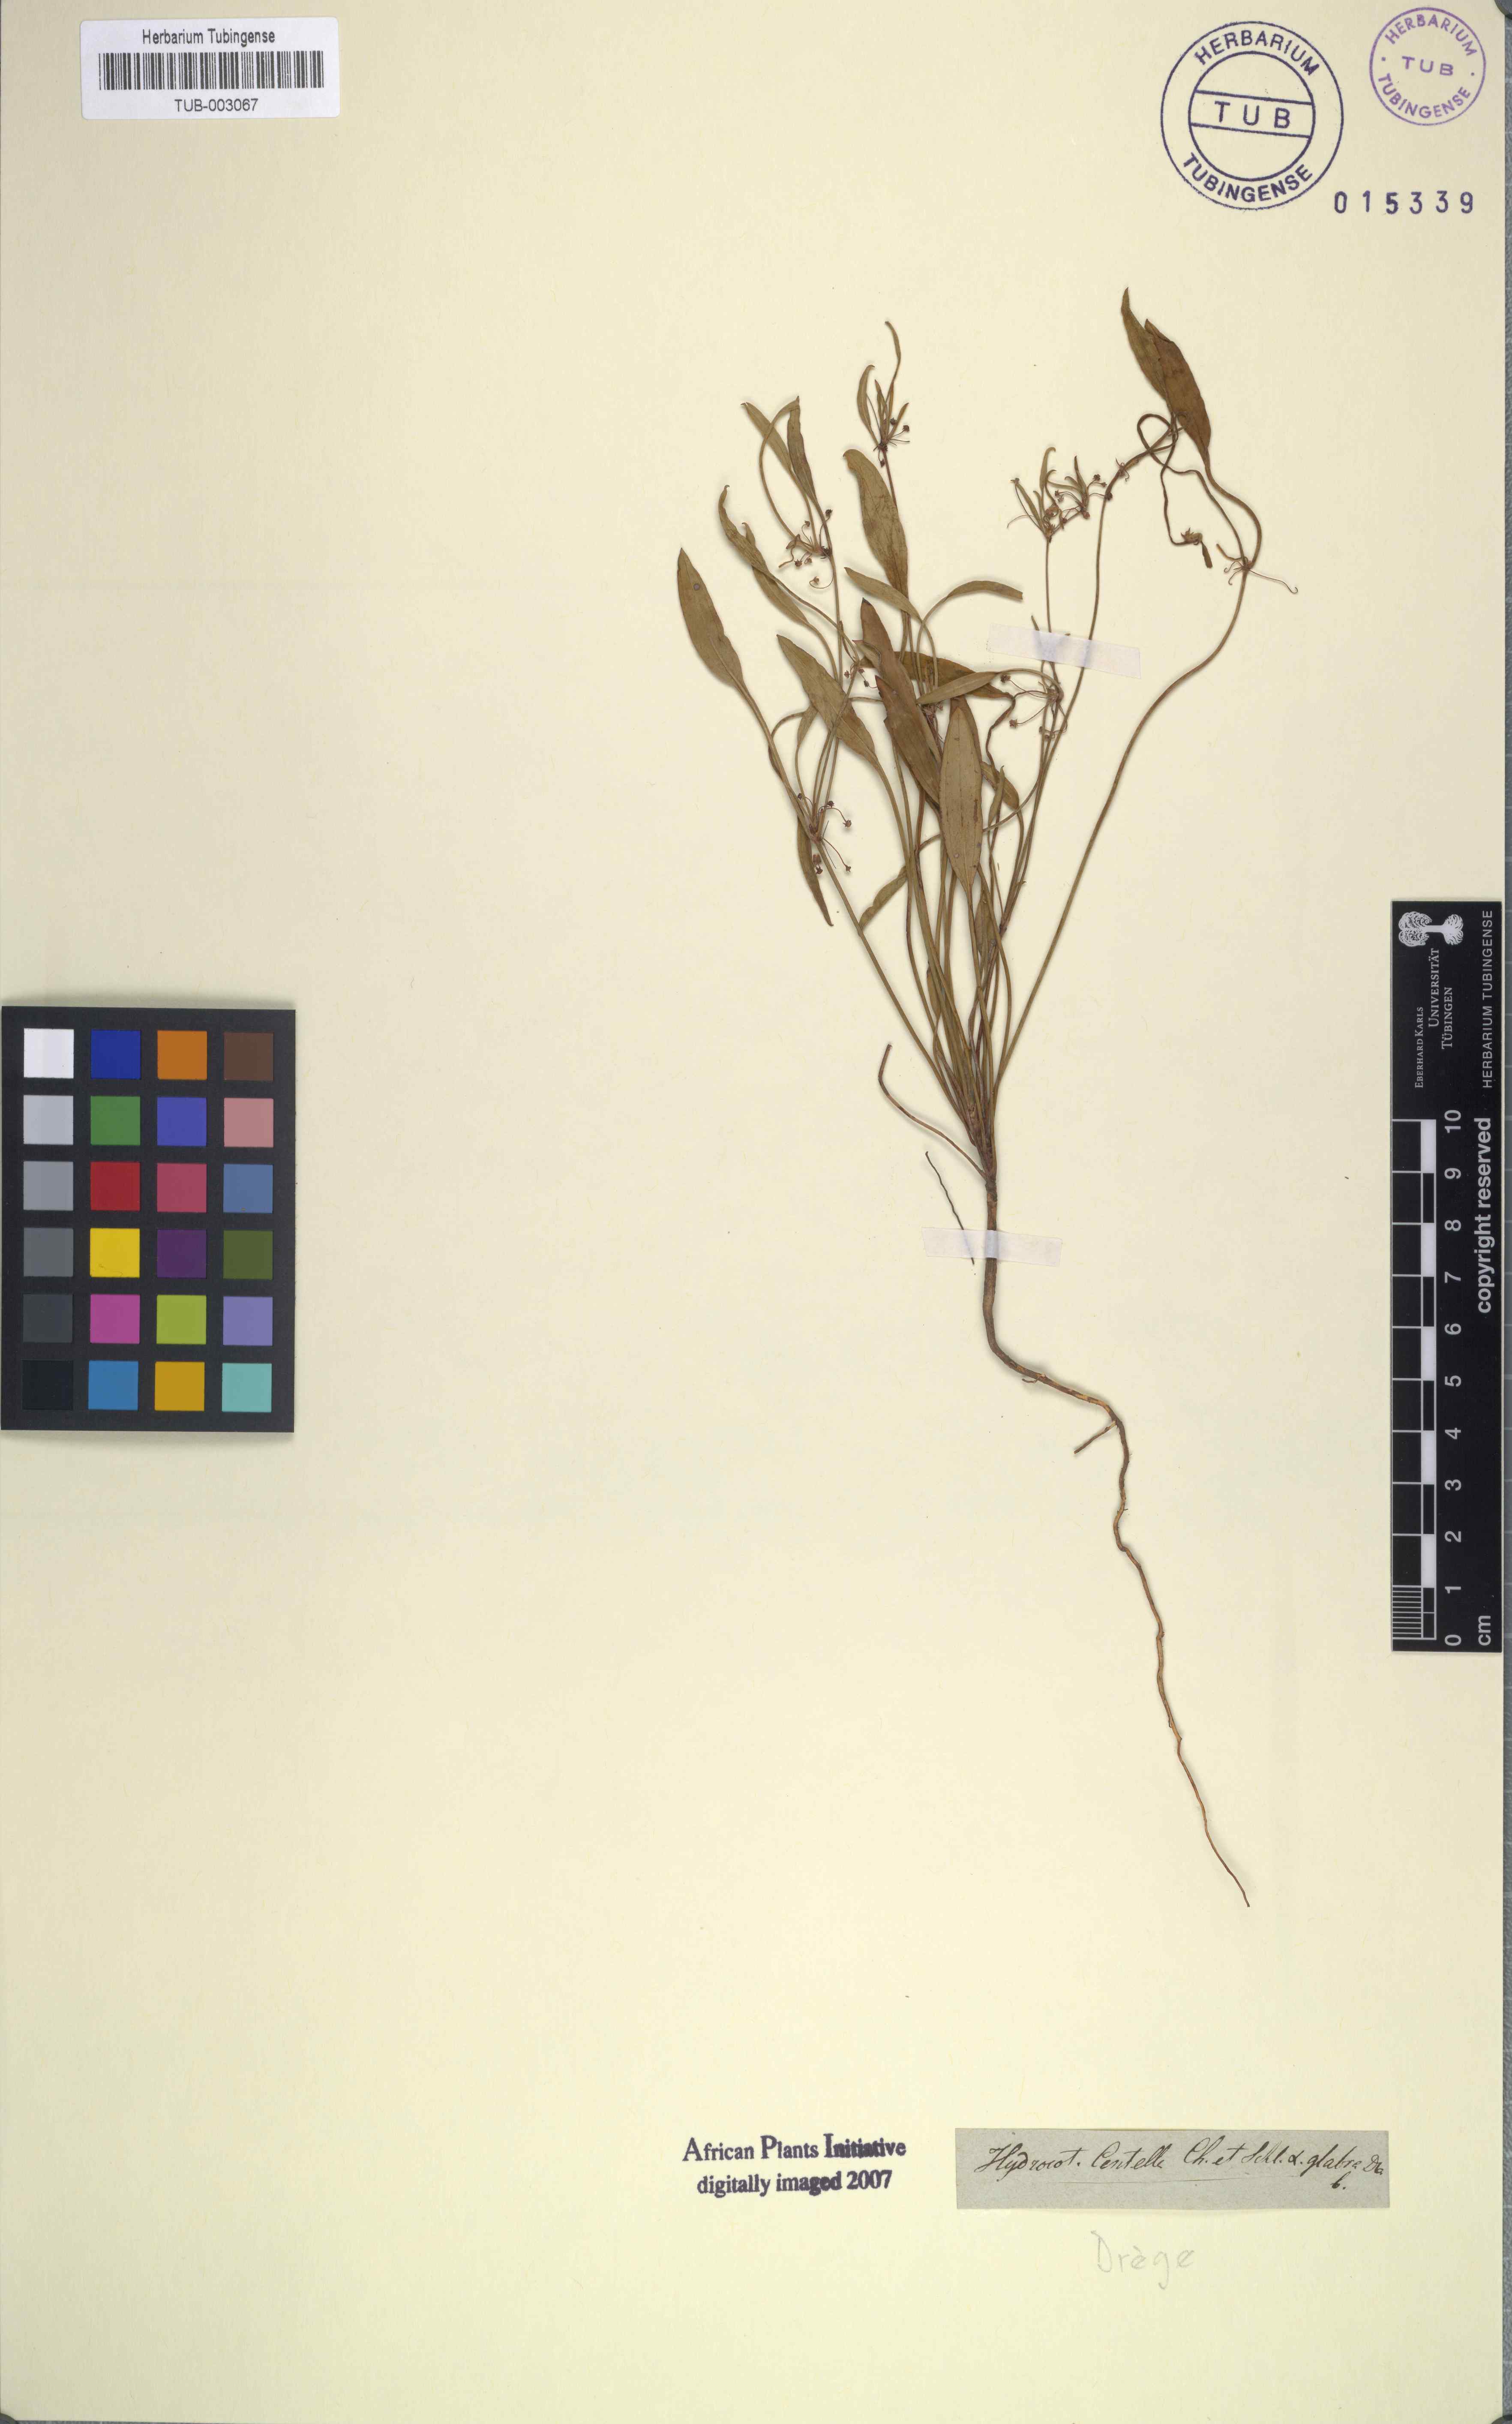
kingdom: Plantae
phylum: Tracheophyta
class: Magnoliopsida
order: Apiales
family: Apiaceae
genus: Centella
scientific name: Centella glabrata
